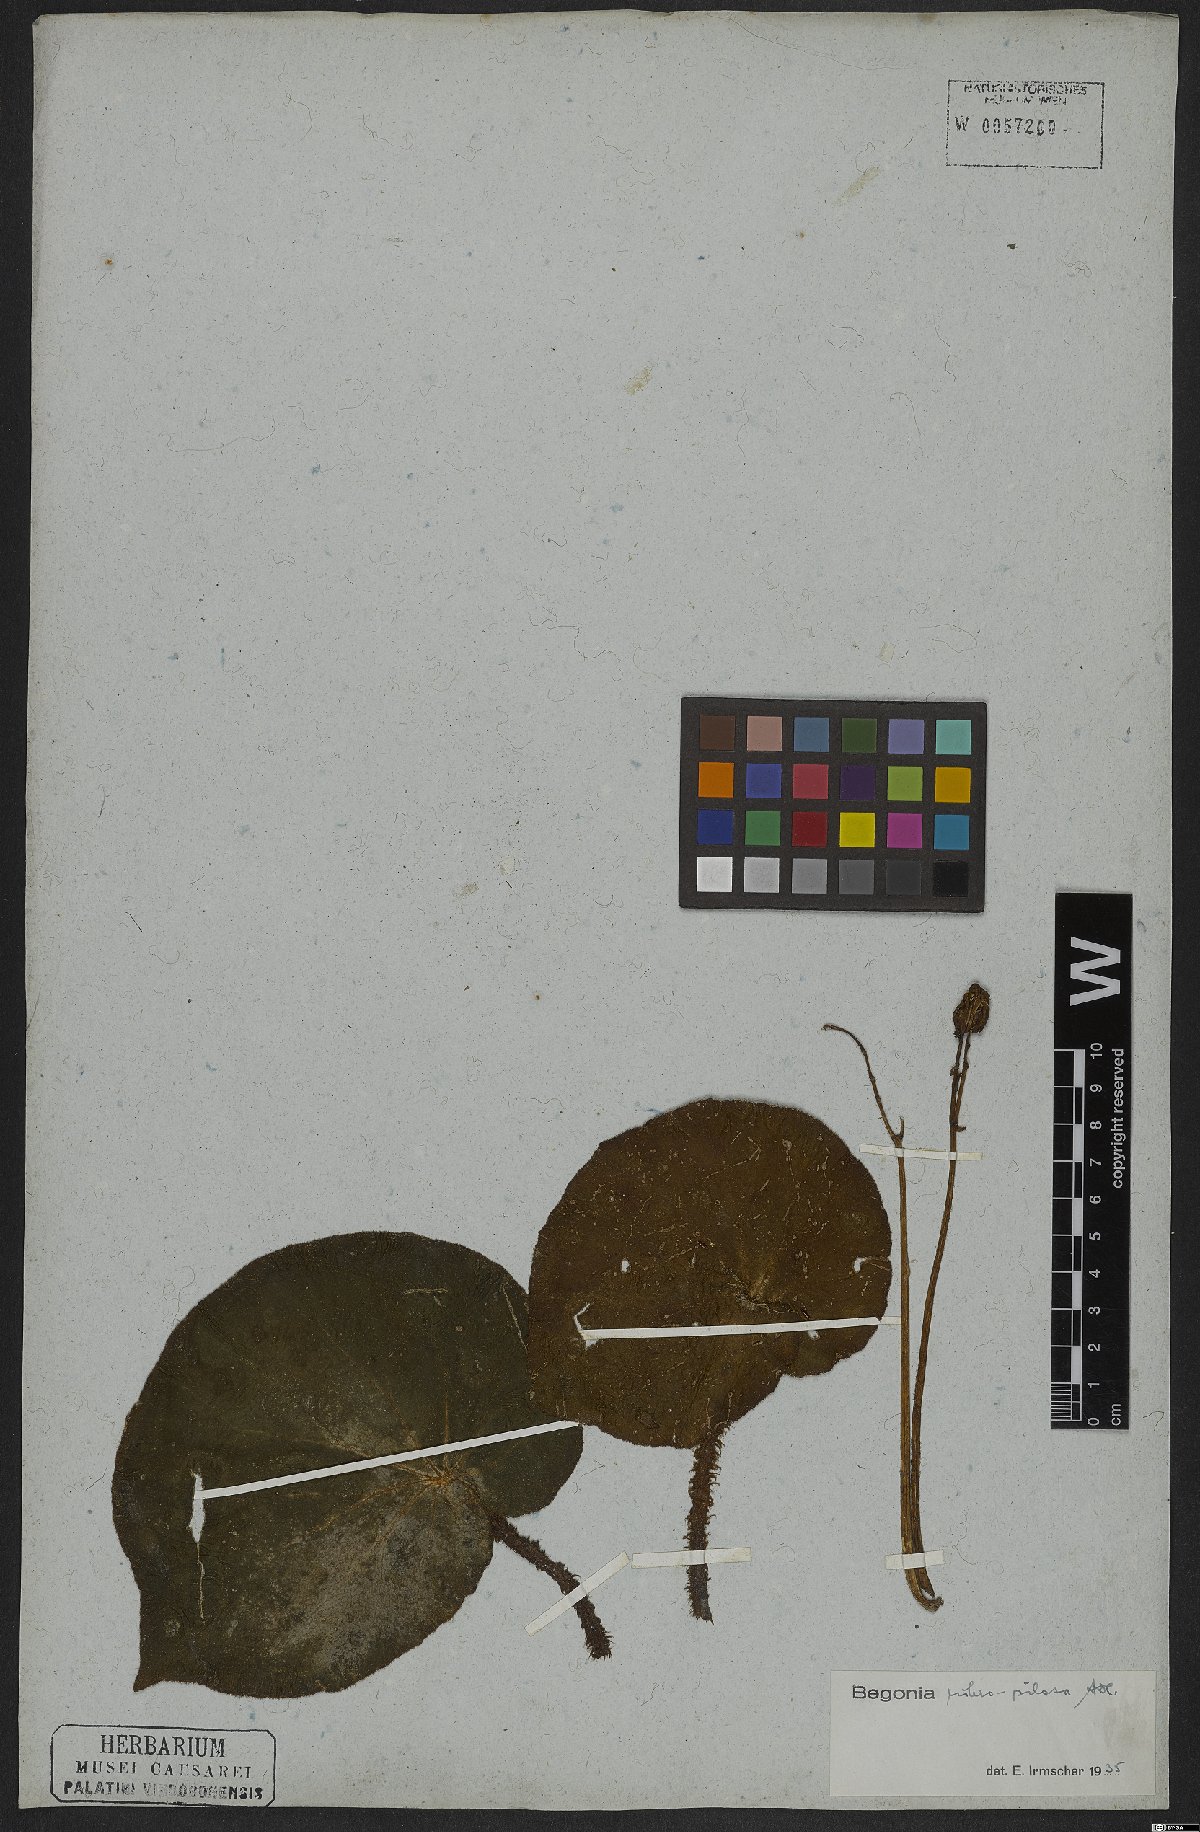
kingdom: Plantae
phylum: Tracheophyta
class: Magnoliopsida
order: Cucurbitales
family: Begoniaceae
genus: Begonia
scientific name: Begonia rubropilosa
